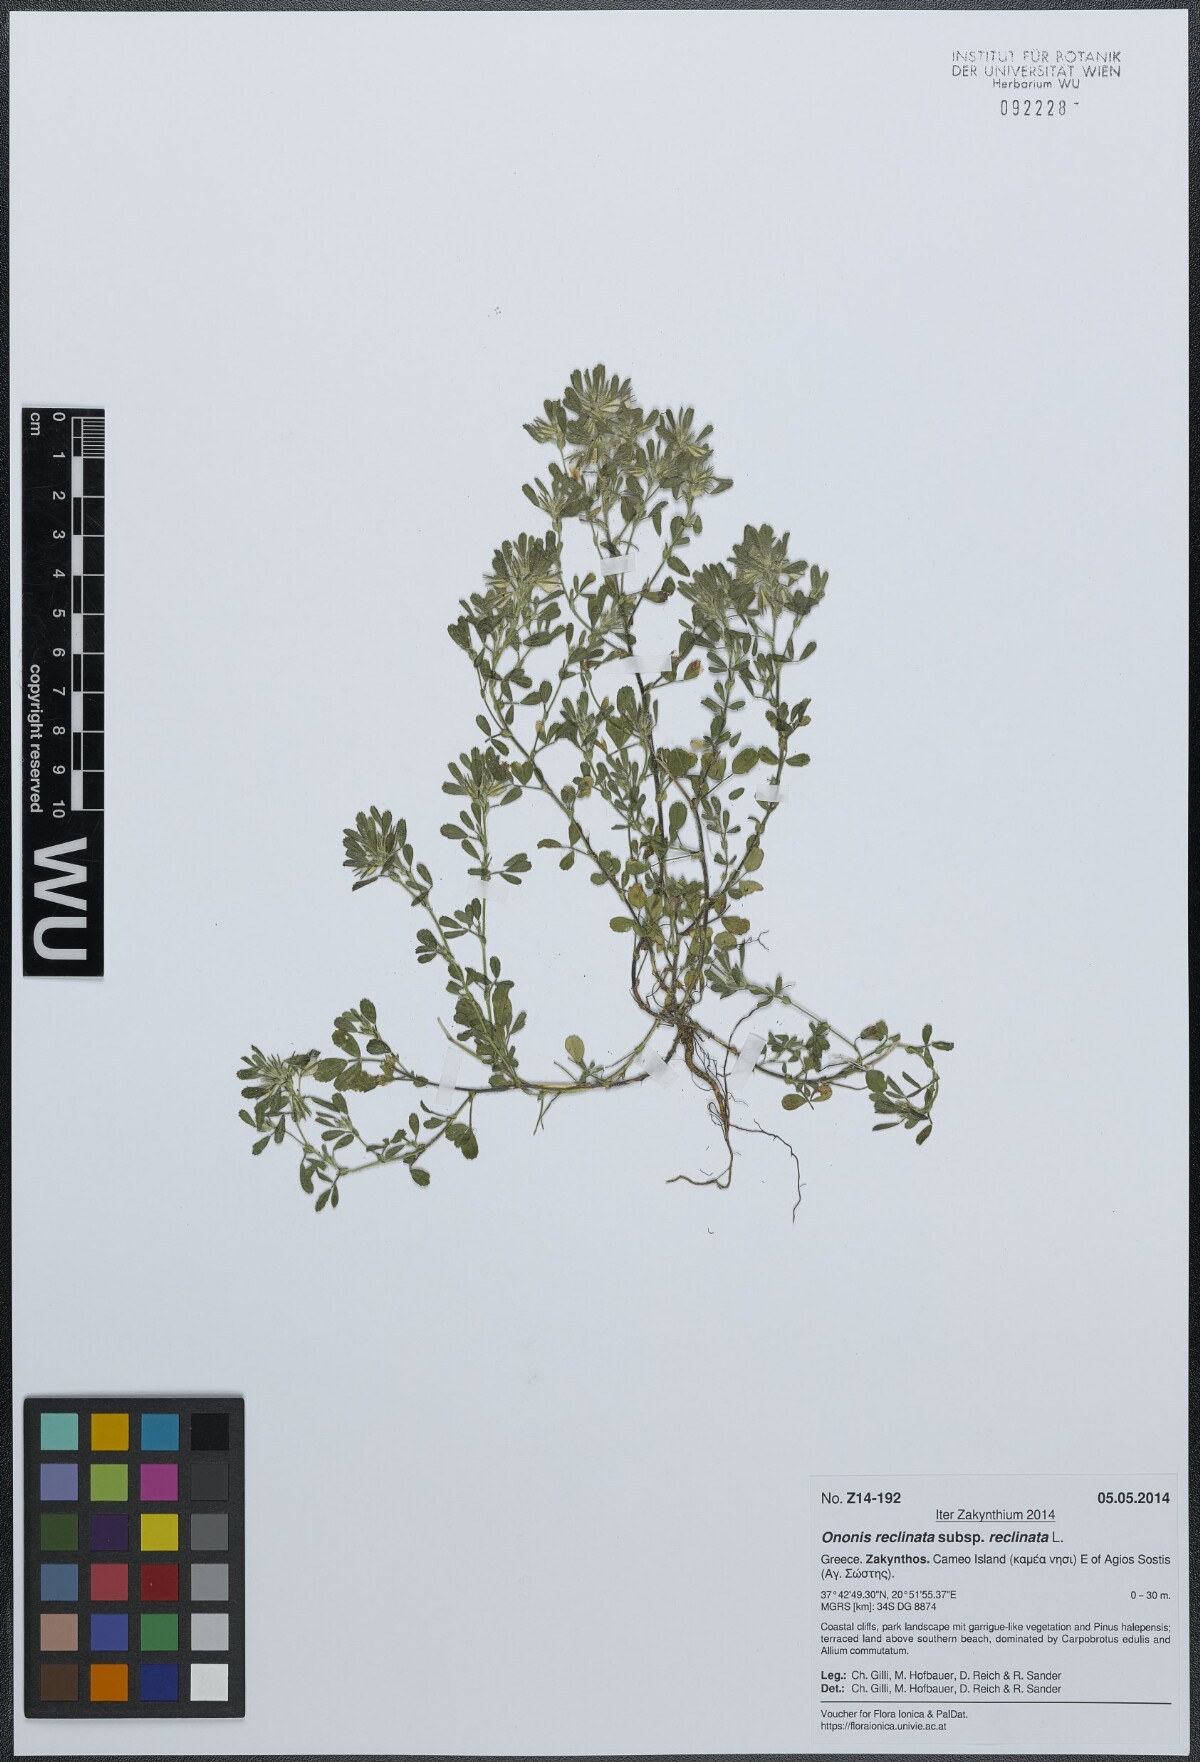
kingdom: Plantae
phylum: Tracheophyta
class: Magnoliopsida
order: Fabales
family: Fabaceae
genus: Ononis
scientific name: Ononis reclinata
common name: Small restharrow
